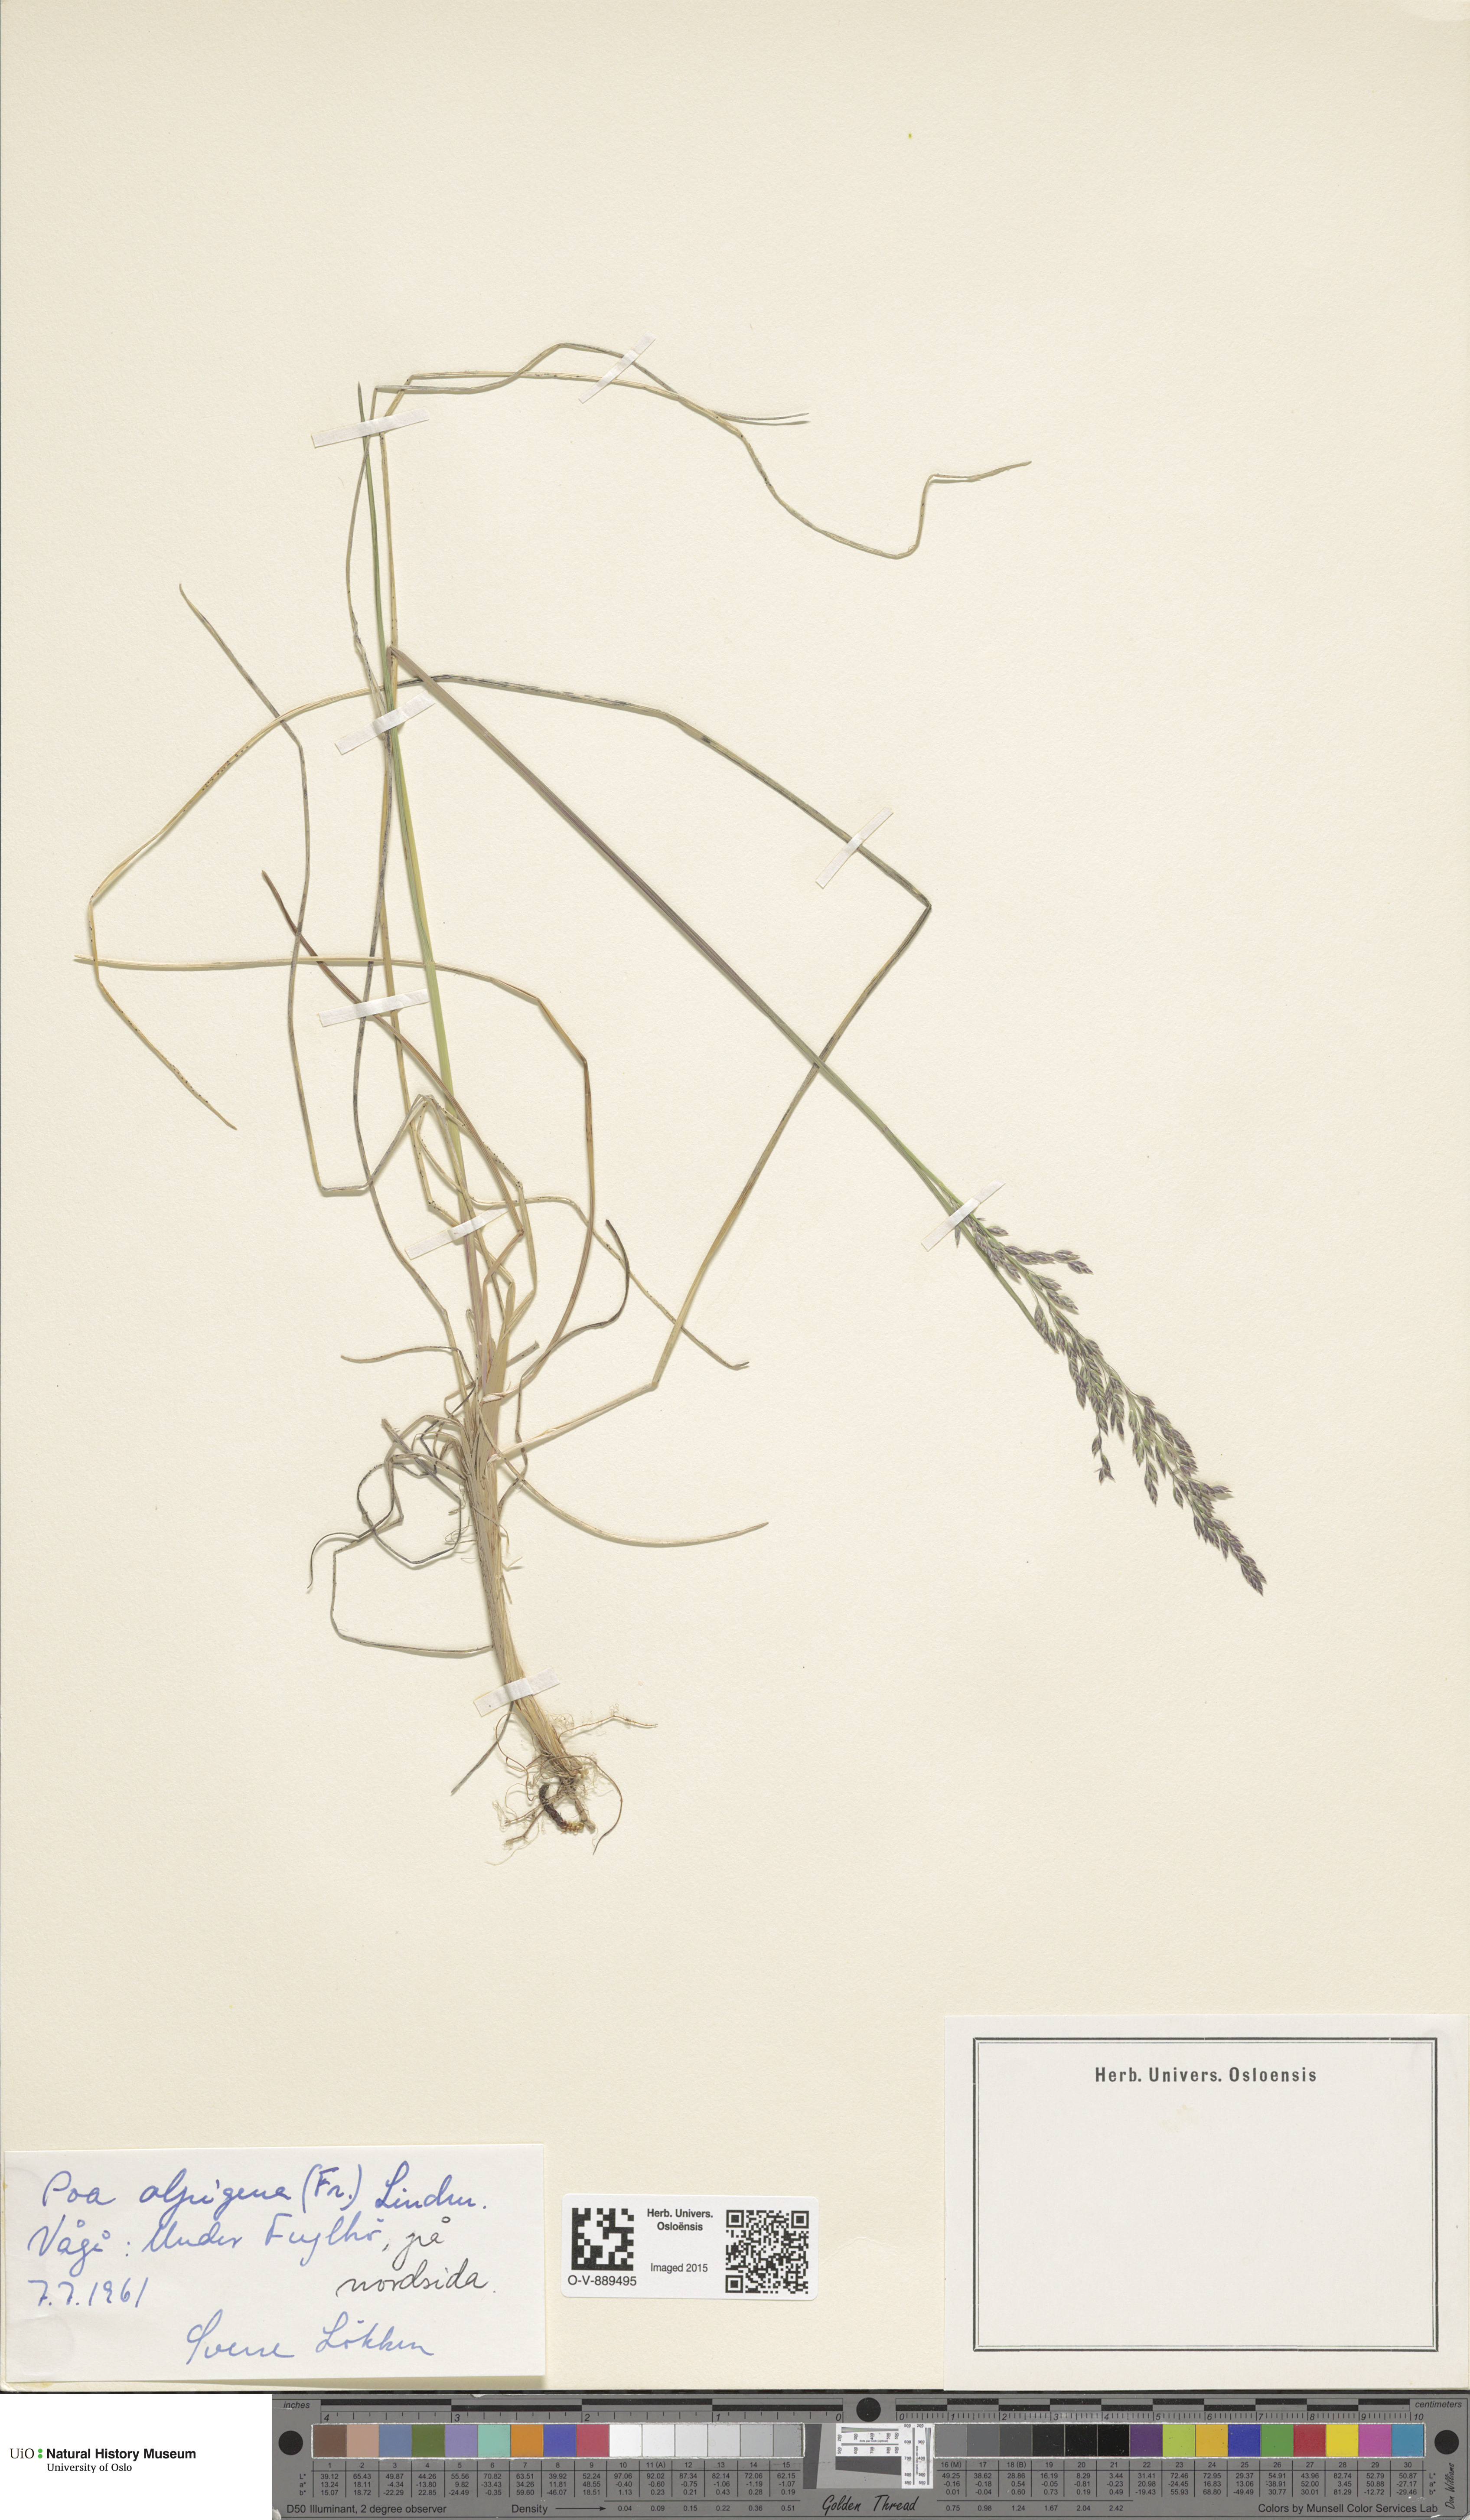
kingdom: Plantae
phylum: Tracheophyta
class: Liliopsida
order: Poales
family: Poaceae
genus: Poa
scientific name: Poa alpigena
